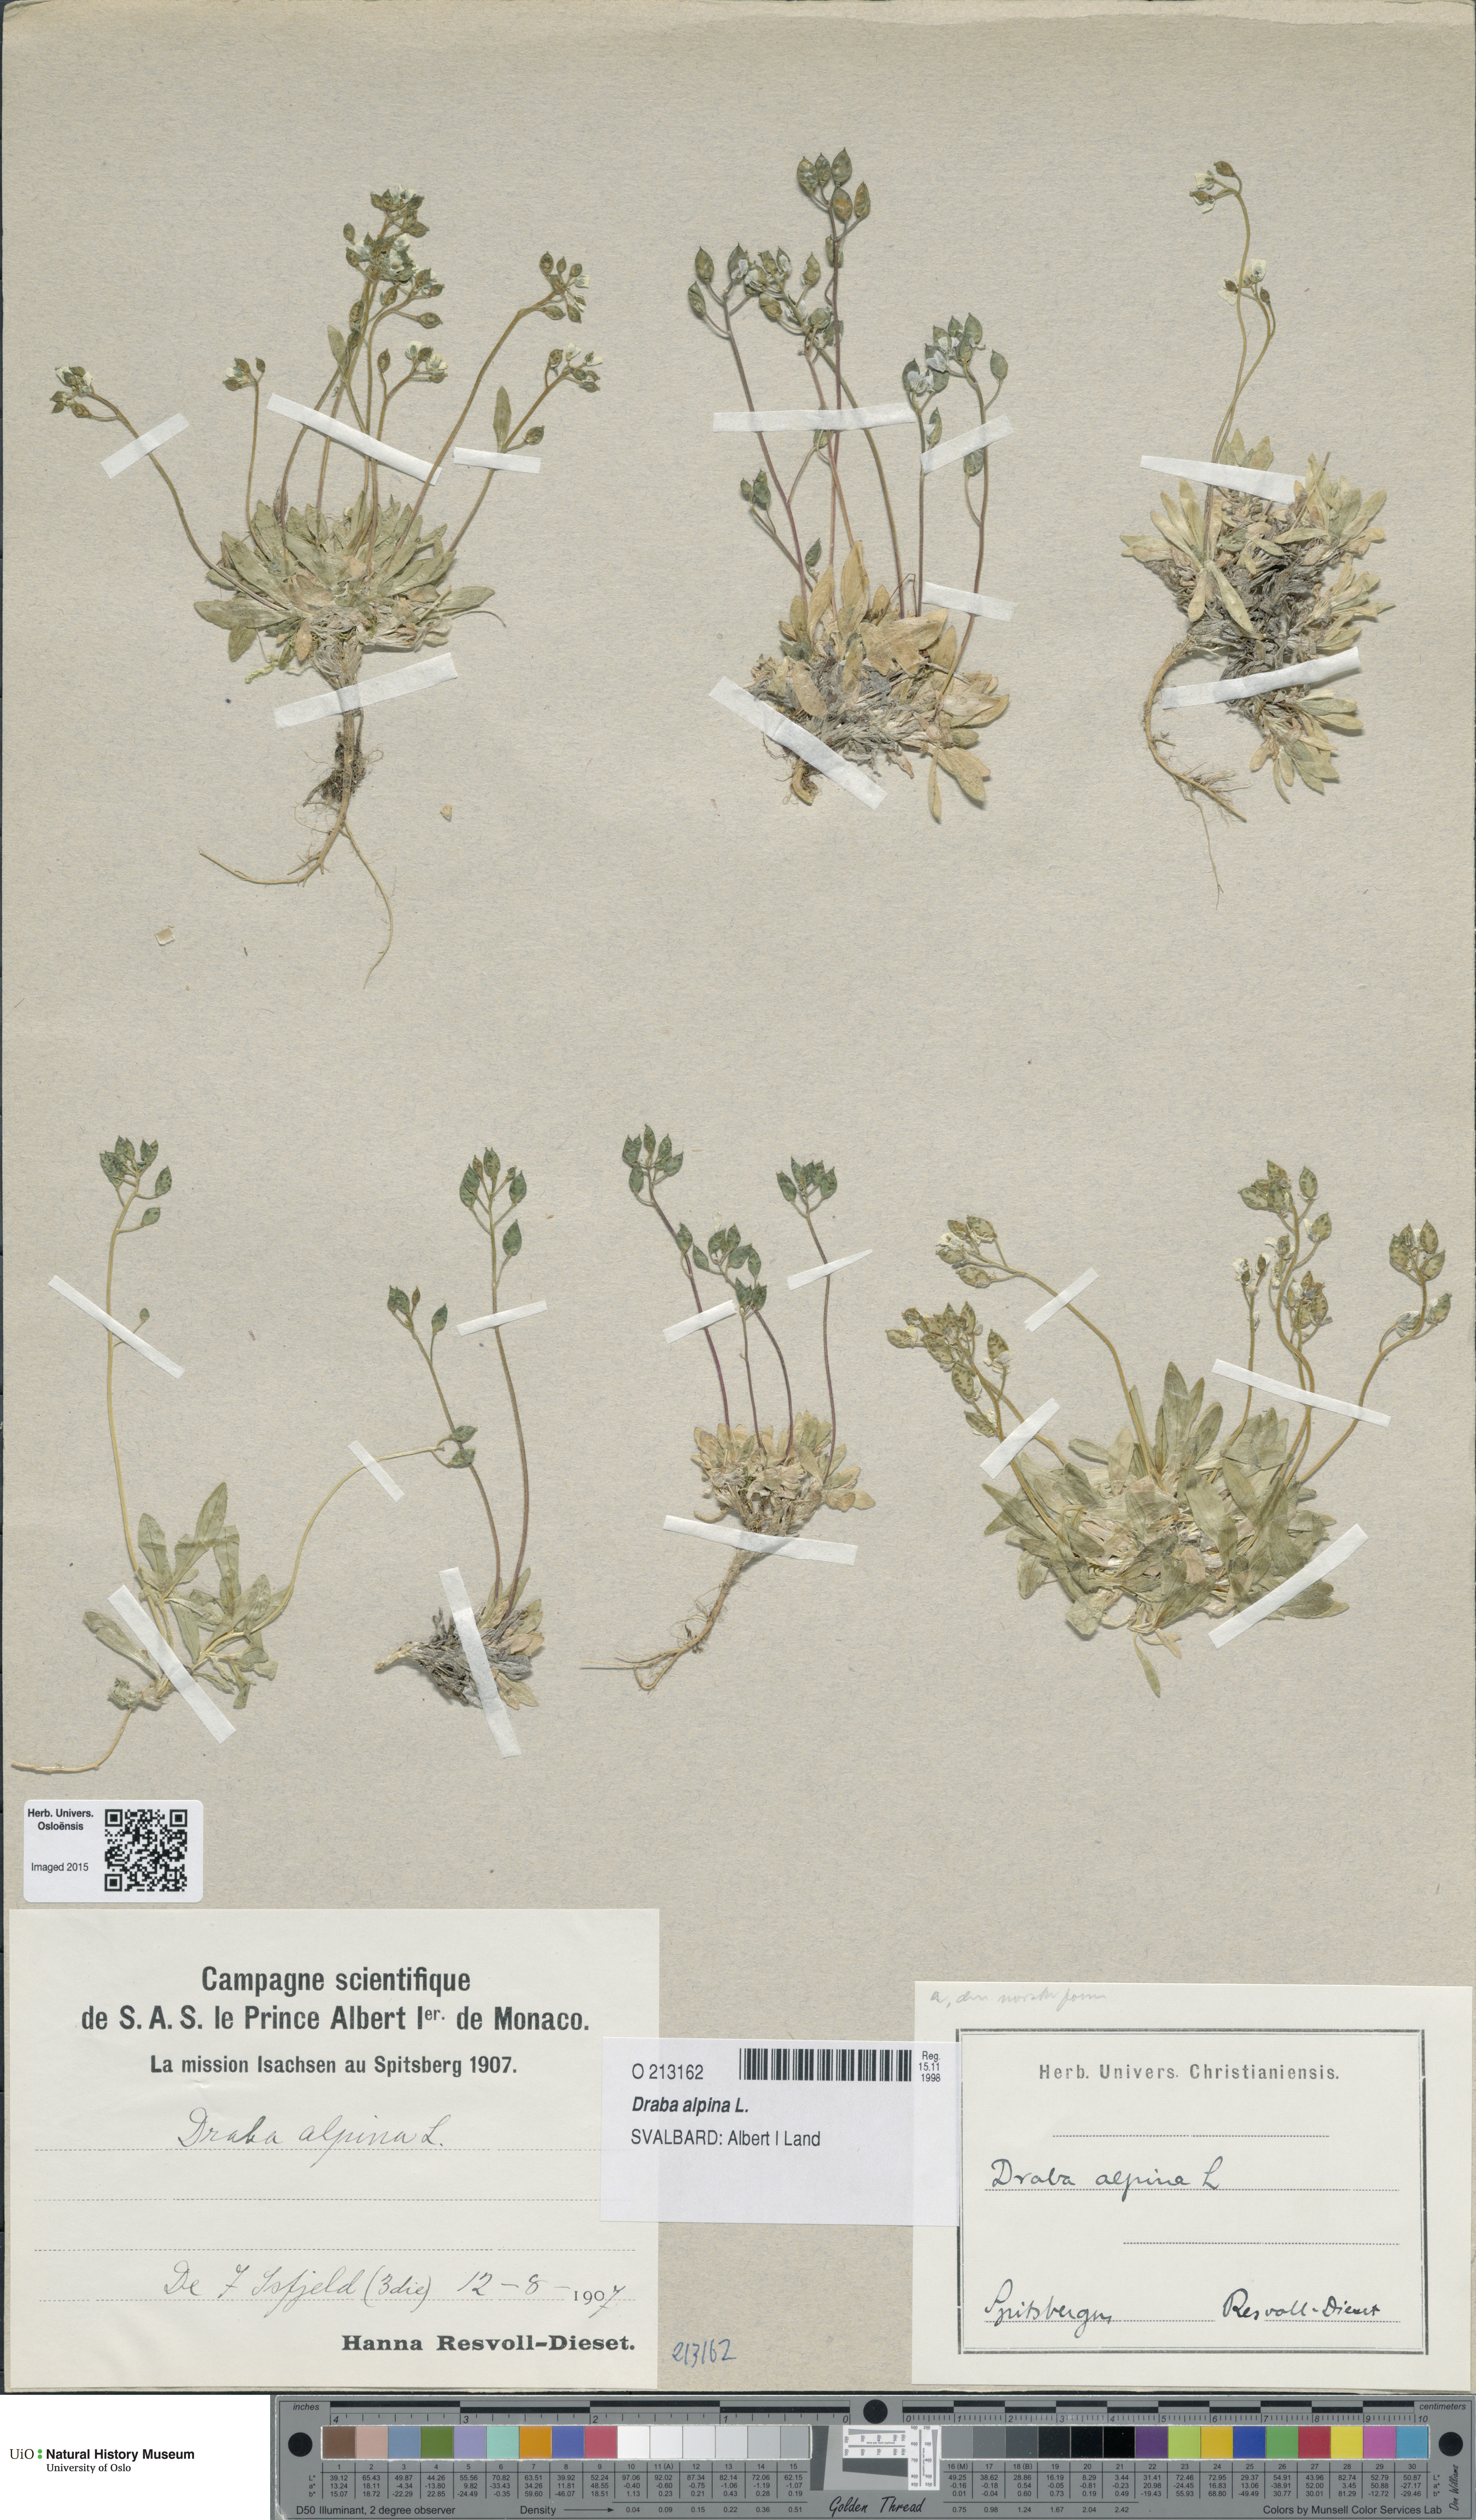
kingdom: Plantae
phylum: Tracheophyta
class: Magnoliopsida
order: Brassicales
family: Brassicaceae
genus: Draba
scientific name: Draba alpina
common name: Alpine draba
